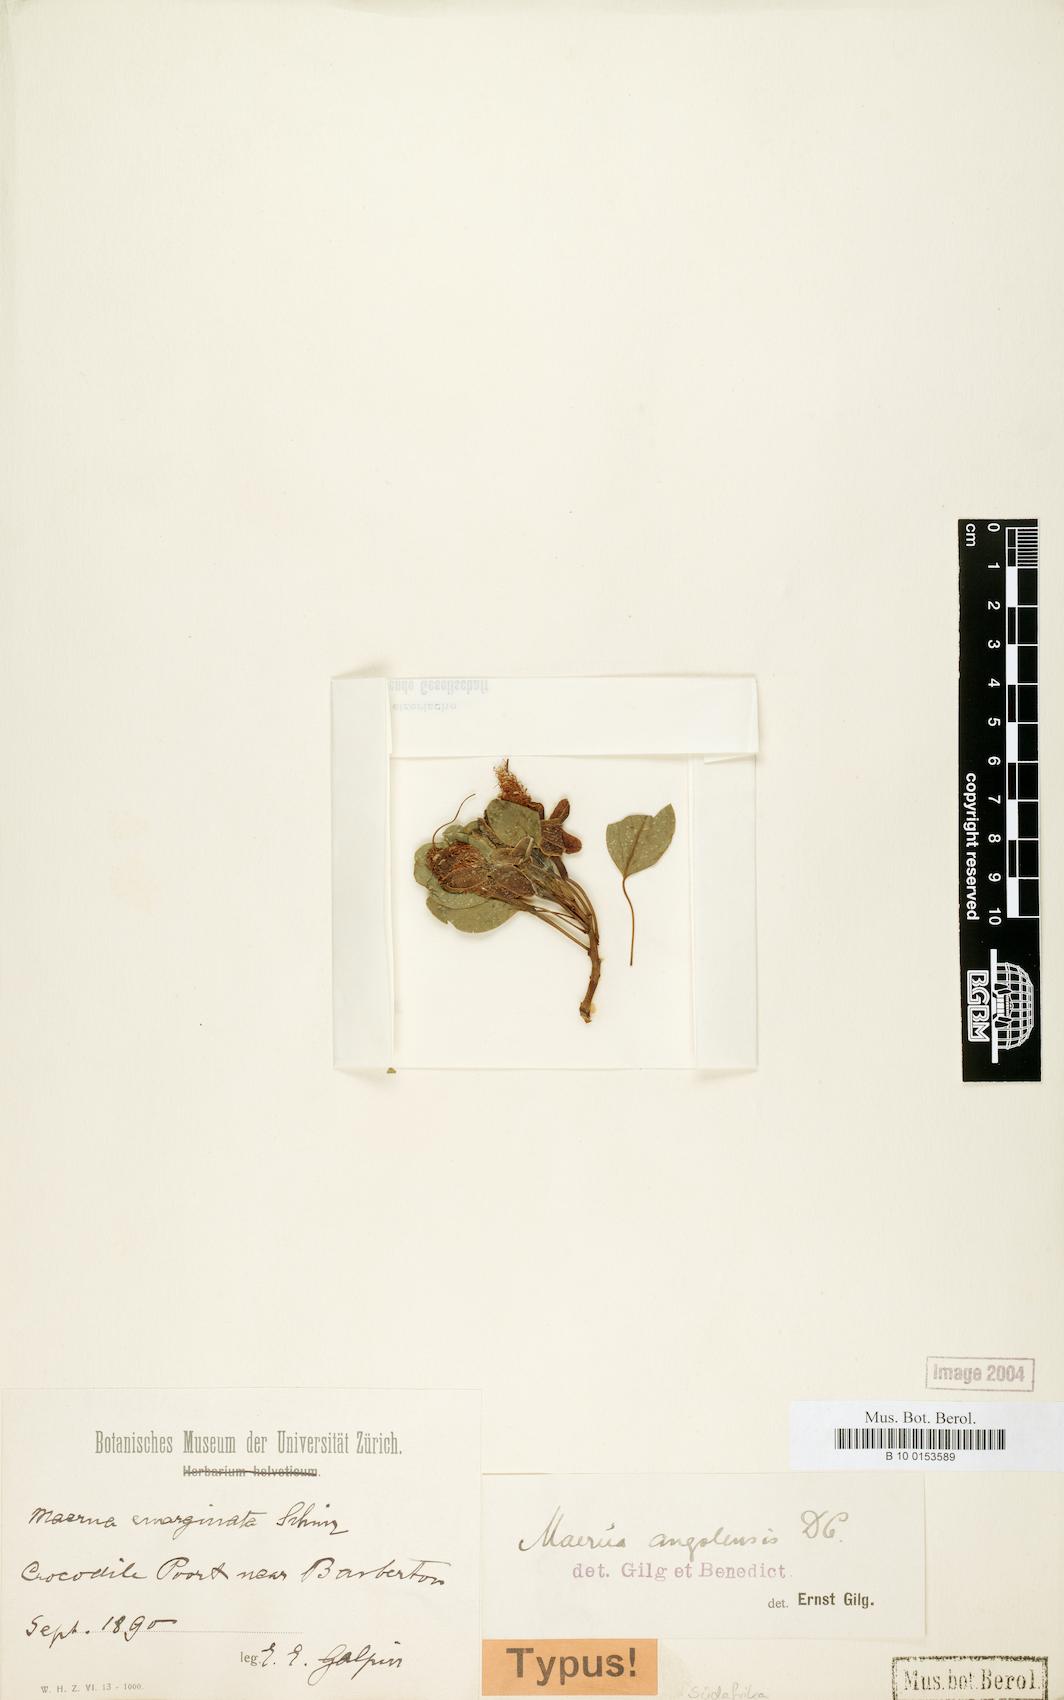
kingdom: Plantae
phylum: Tracheophyta
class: Magnoliopsida
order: Brassicales
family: Capparaceae
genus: Maerua
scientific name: Maerua angolensis
